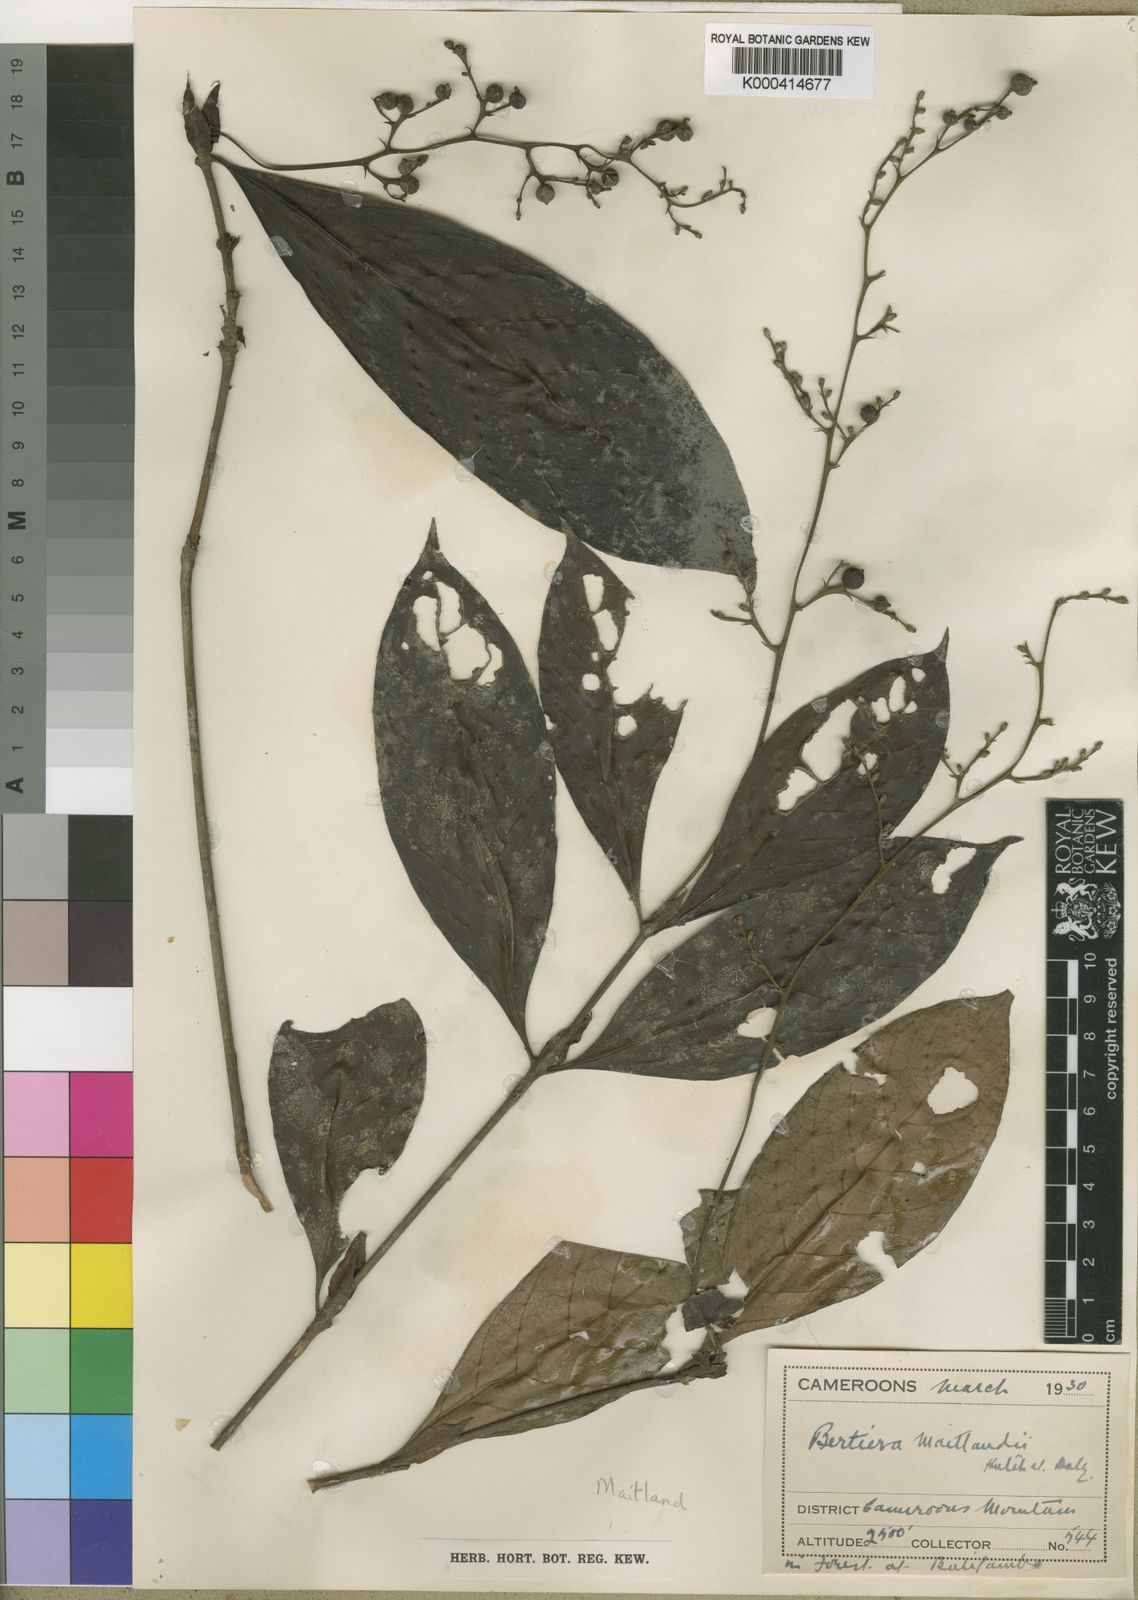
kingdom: Plantae
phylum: Tracheophyta
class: Magnoliopsida
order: Gentianales
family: Rubiaceae
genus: Bertiera
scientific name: Bertiera laxa
